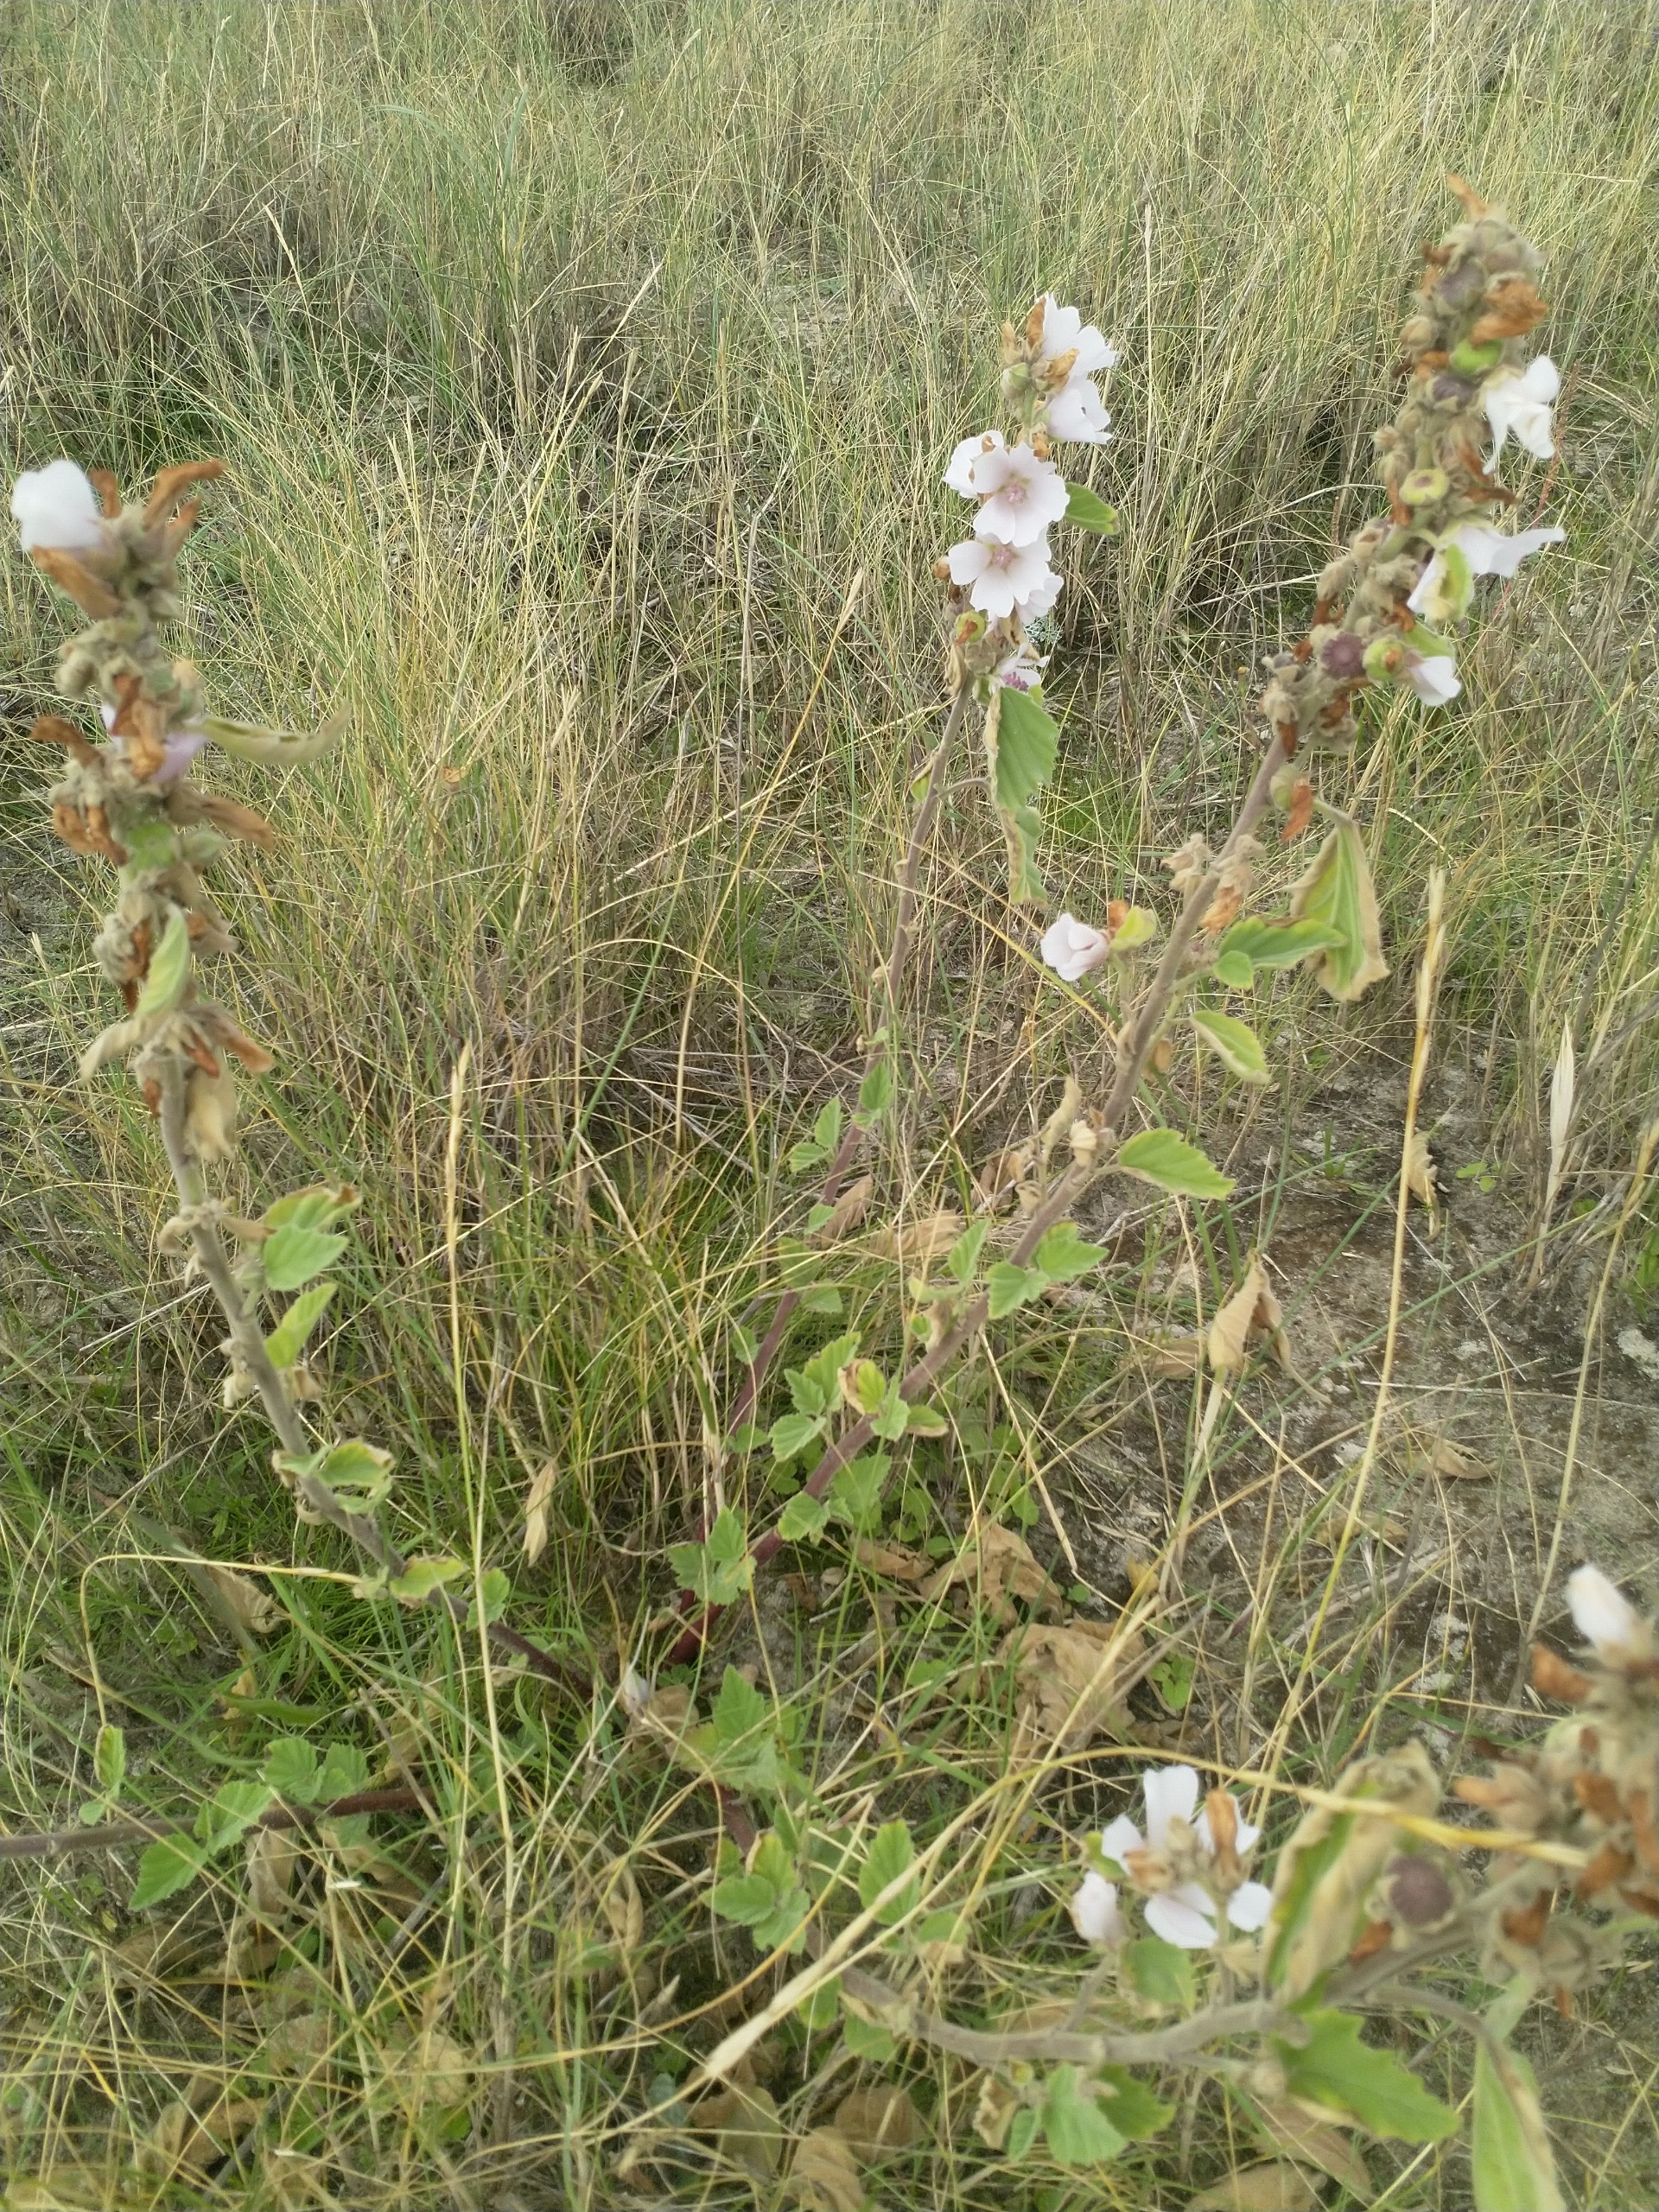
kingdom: Plantae
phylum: Tracheophyta
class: Magnoliopsida
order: Malvales
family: Malvaceae
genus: Althaea
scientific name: Althaea officinalis
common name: Lægestokrose
